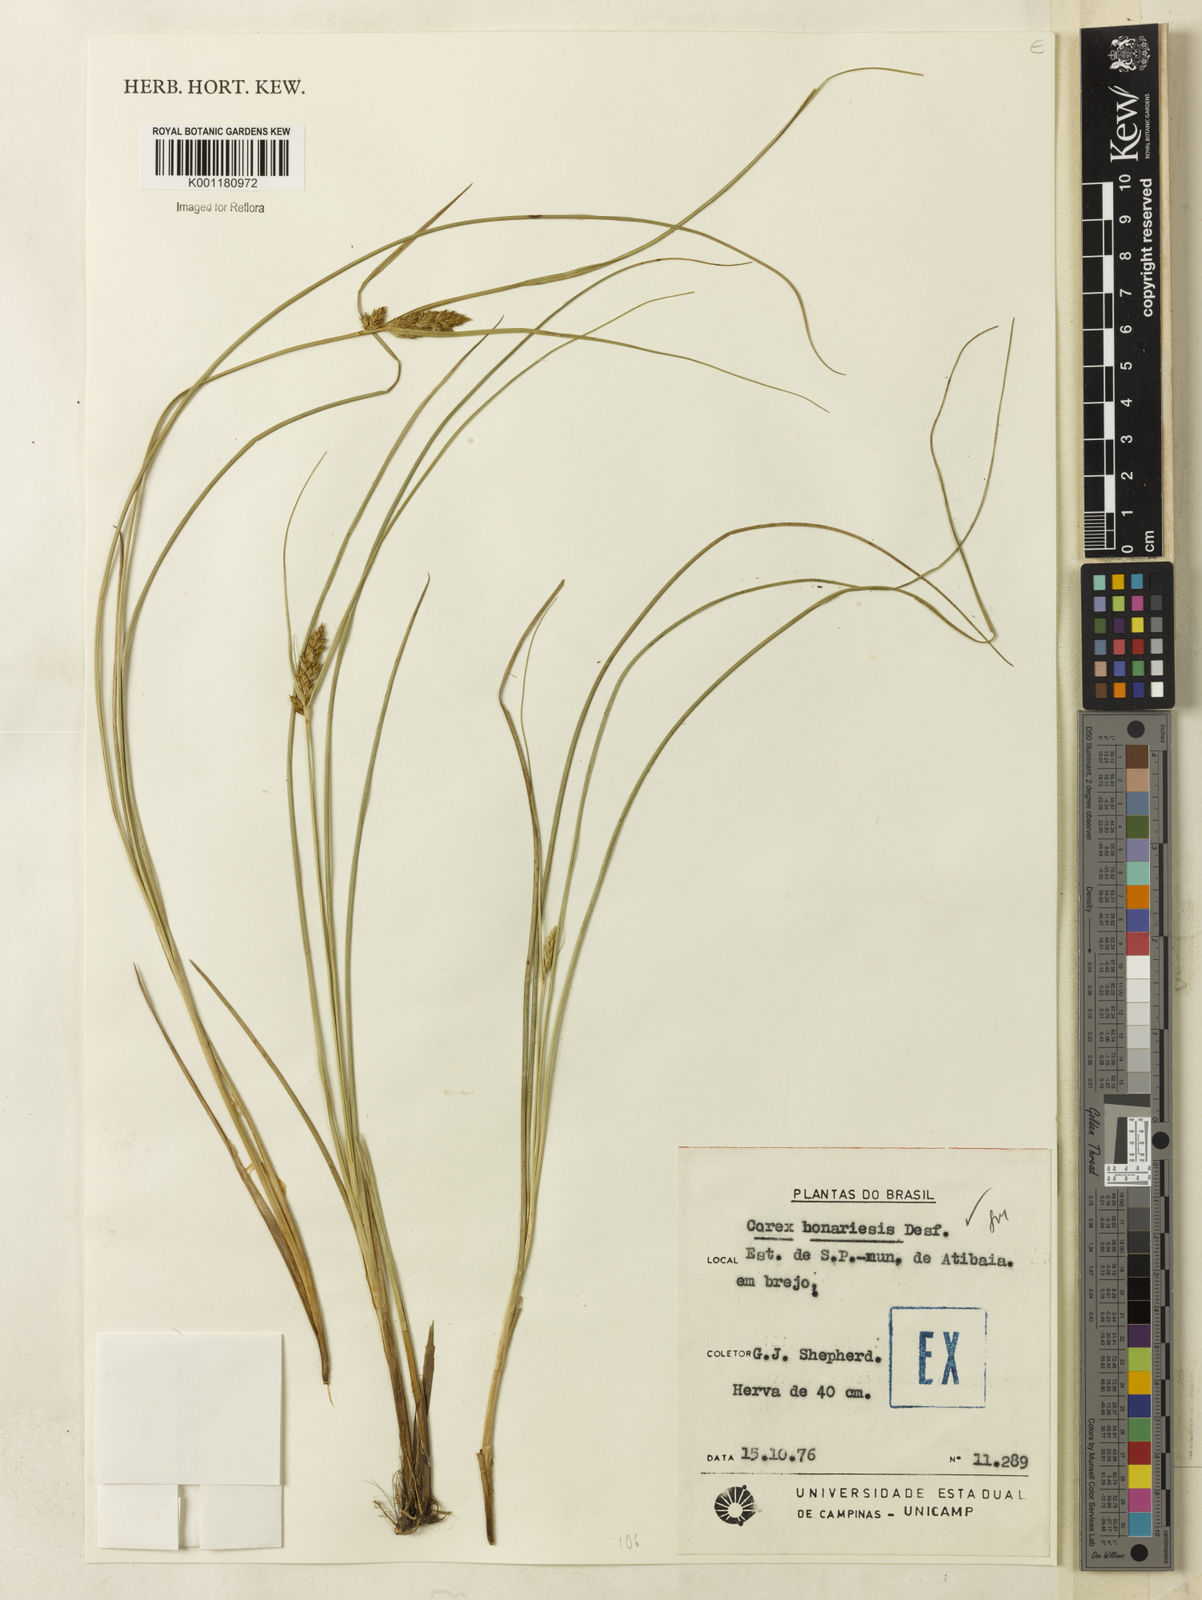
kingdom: Plantae
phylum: Tracheophyta
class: Liliopsida
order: Poales
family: Cyperaceae
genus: Carex
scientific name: Carex bonariensis
